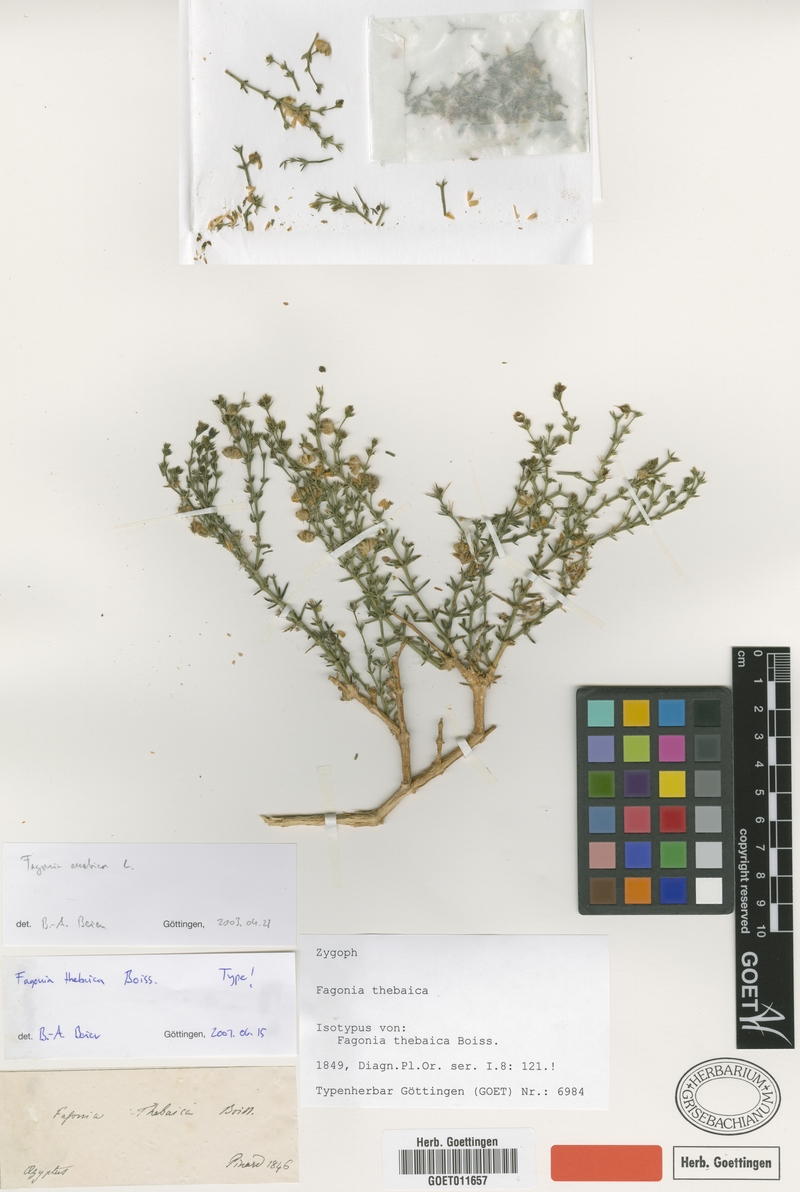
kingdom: Plantae
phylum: Tracheophyta
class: Magnoliopsida
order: Zygophyllales
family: Zygophyllaceae
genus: Fagonia
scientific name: Fagonia arabica
